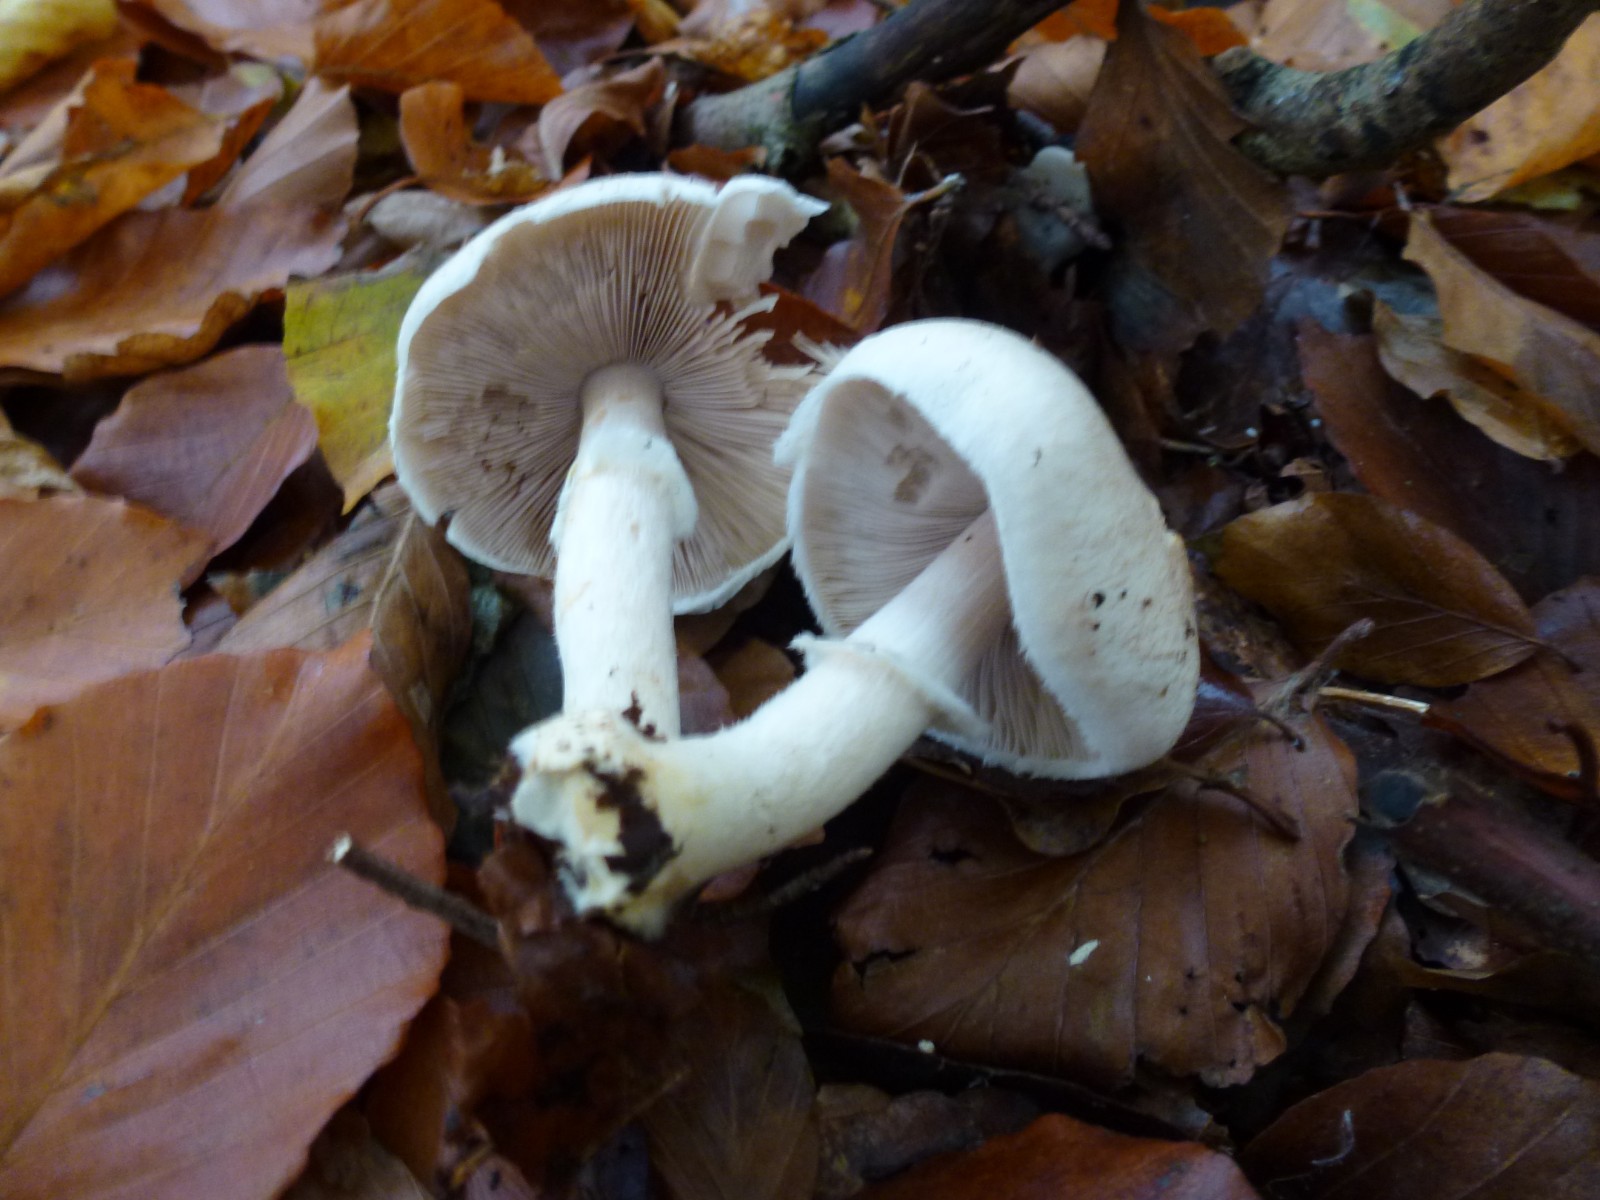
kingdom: Fungi
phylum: Basidiomycota
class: Agaricomycetes
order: Agaricales
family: Agaricaceae
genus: Agaricus
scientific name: Agaricus
